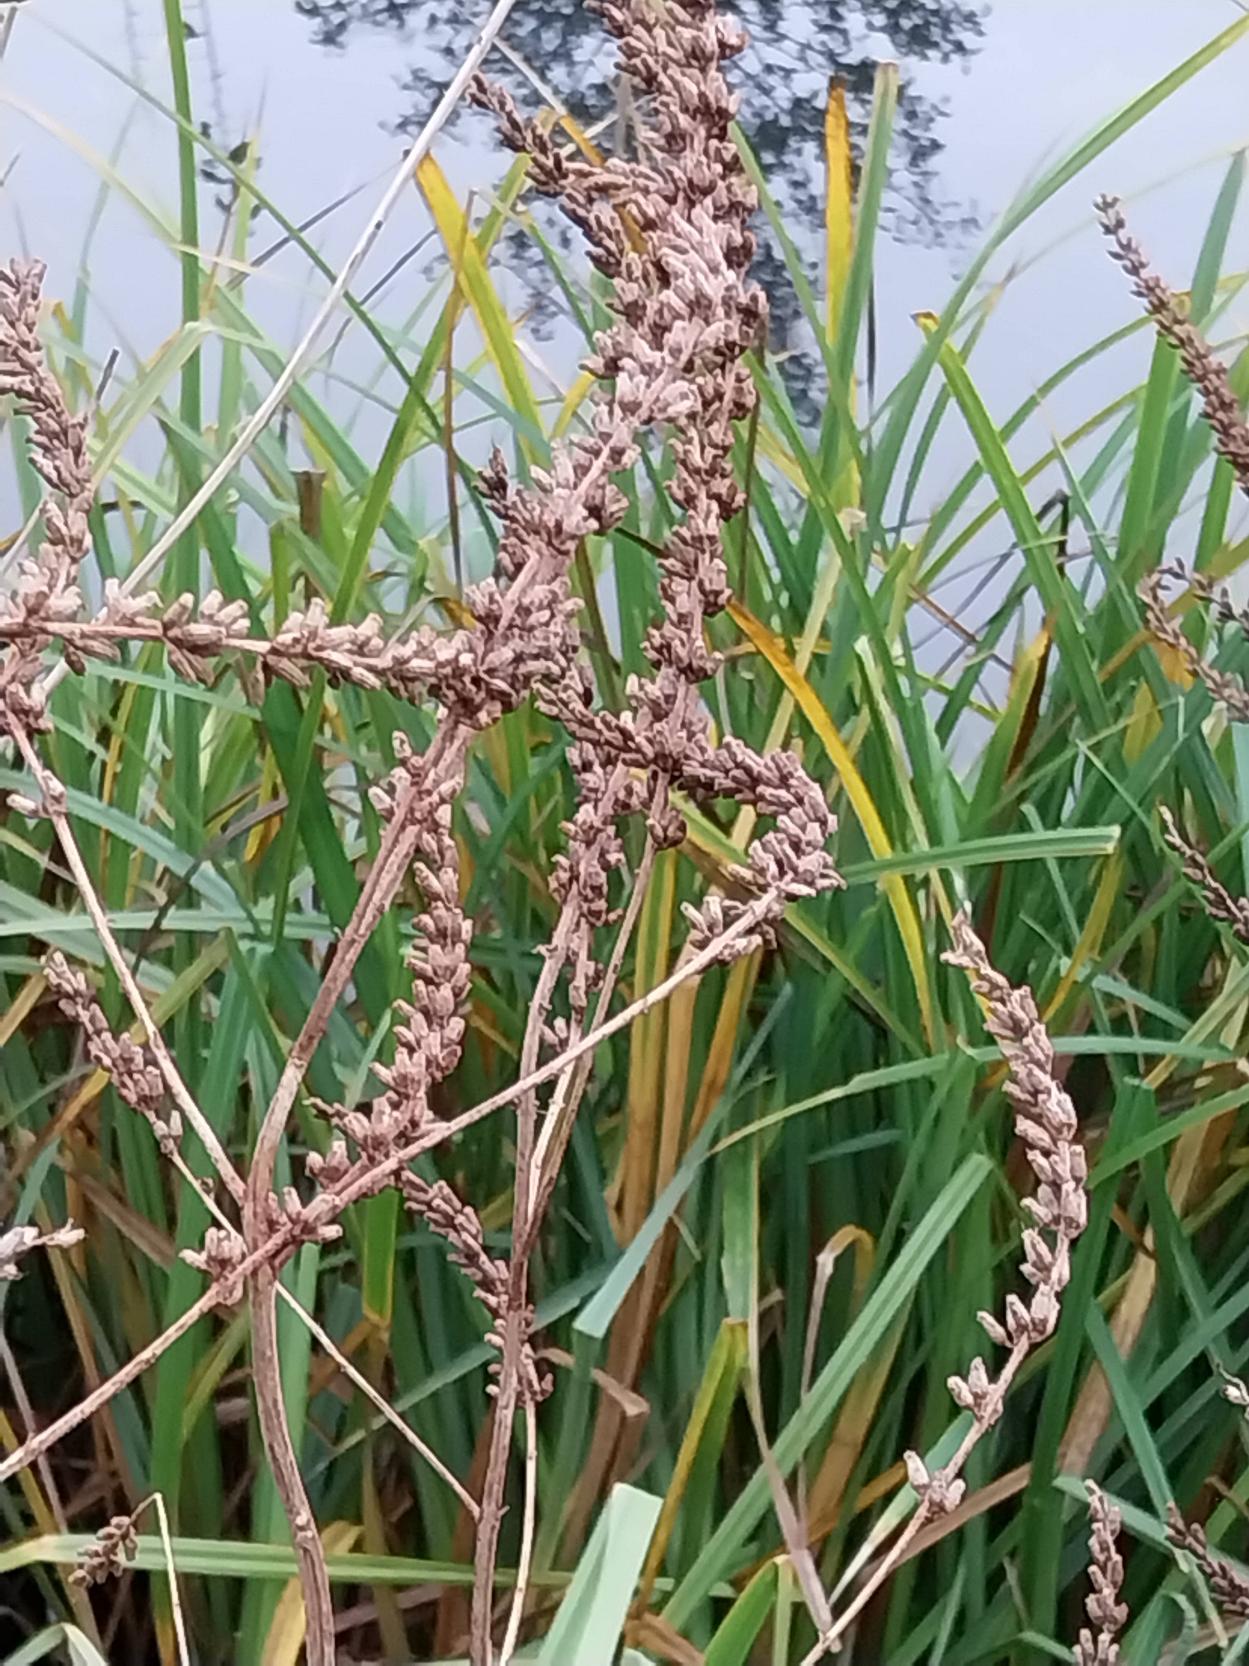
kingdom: Plantae
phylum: Tracheophyta
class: Magnoliopsida
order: Myrtales
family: Lythraceae
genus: Lythrum
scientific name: Lythrum salicaria
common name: Kattehale
